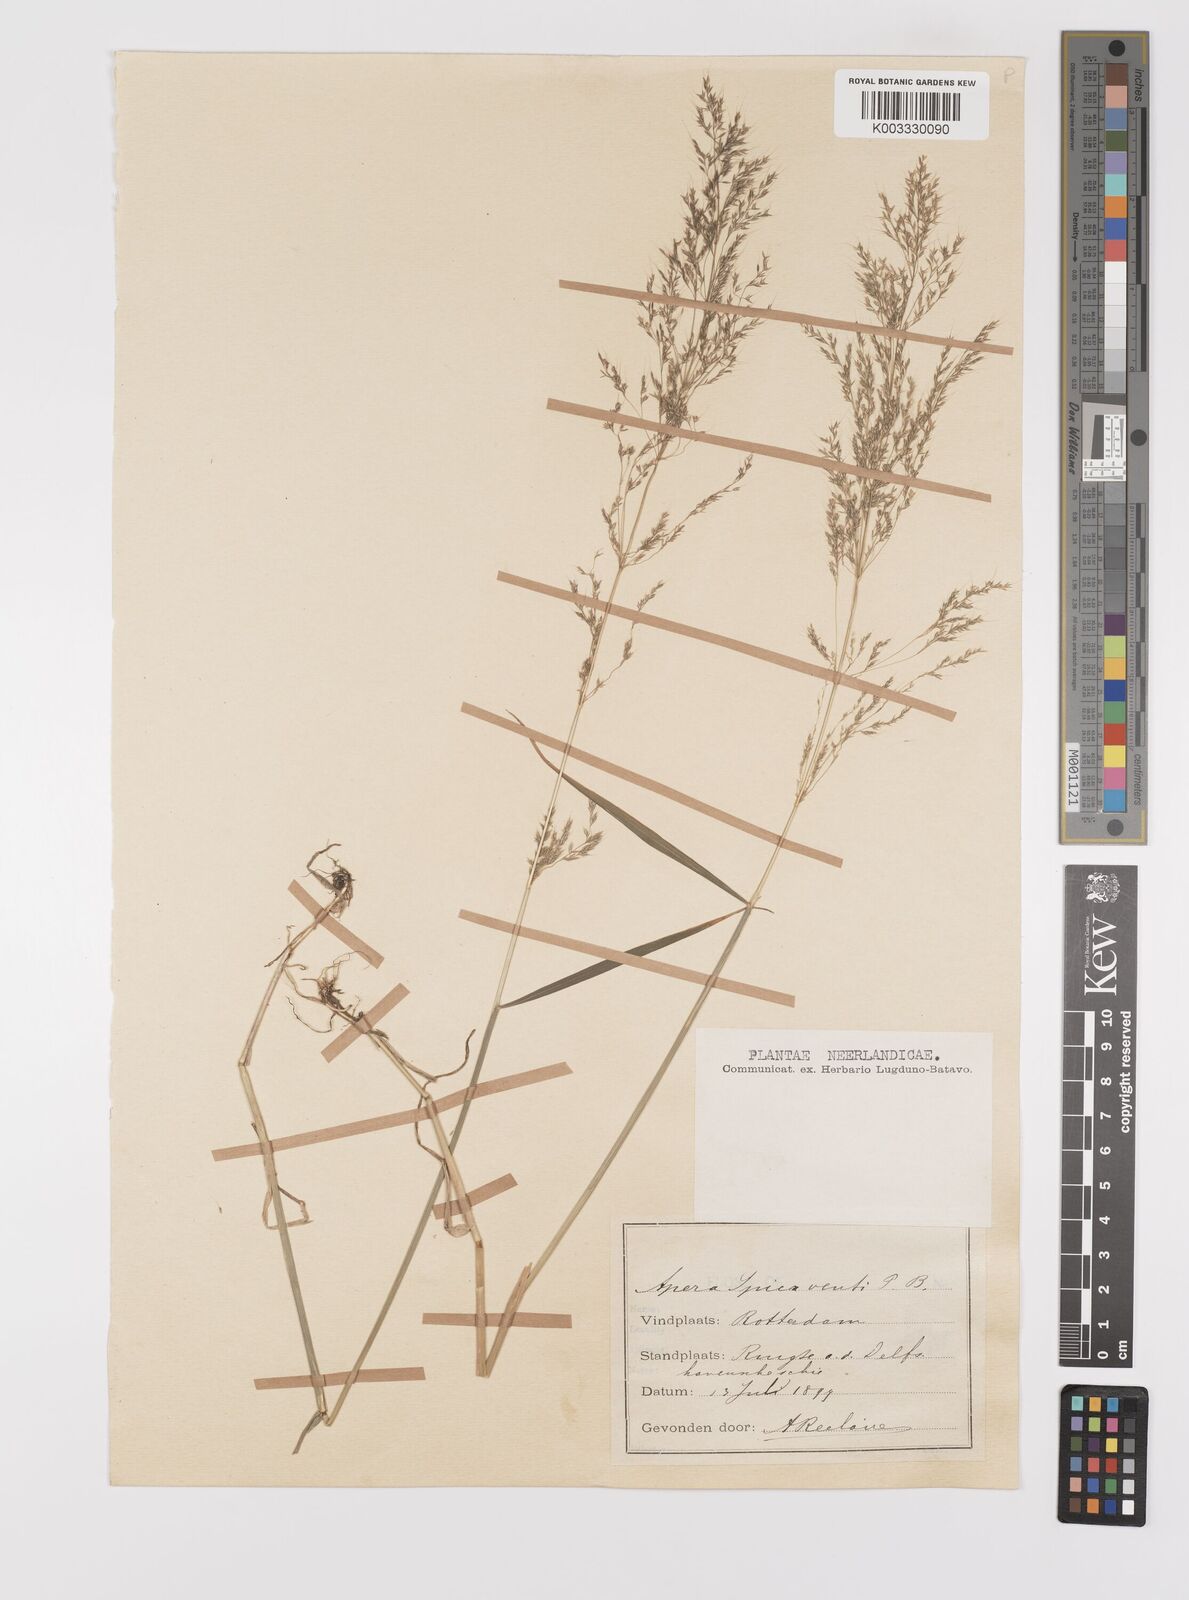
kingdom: Plantae
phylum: Tracheophyta
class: Liliopsida
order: Poales
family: Poaceae
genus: Apera
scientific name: Apera spica-venti
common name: Loose silky-bent
